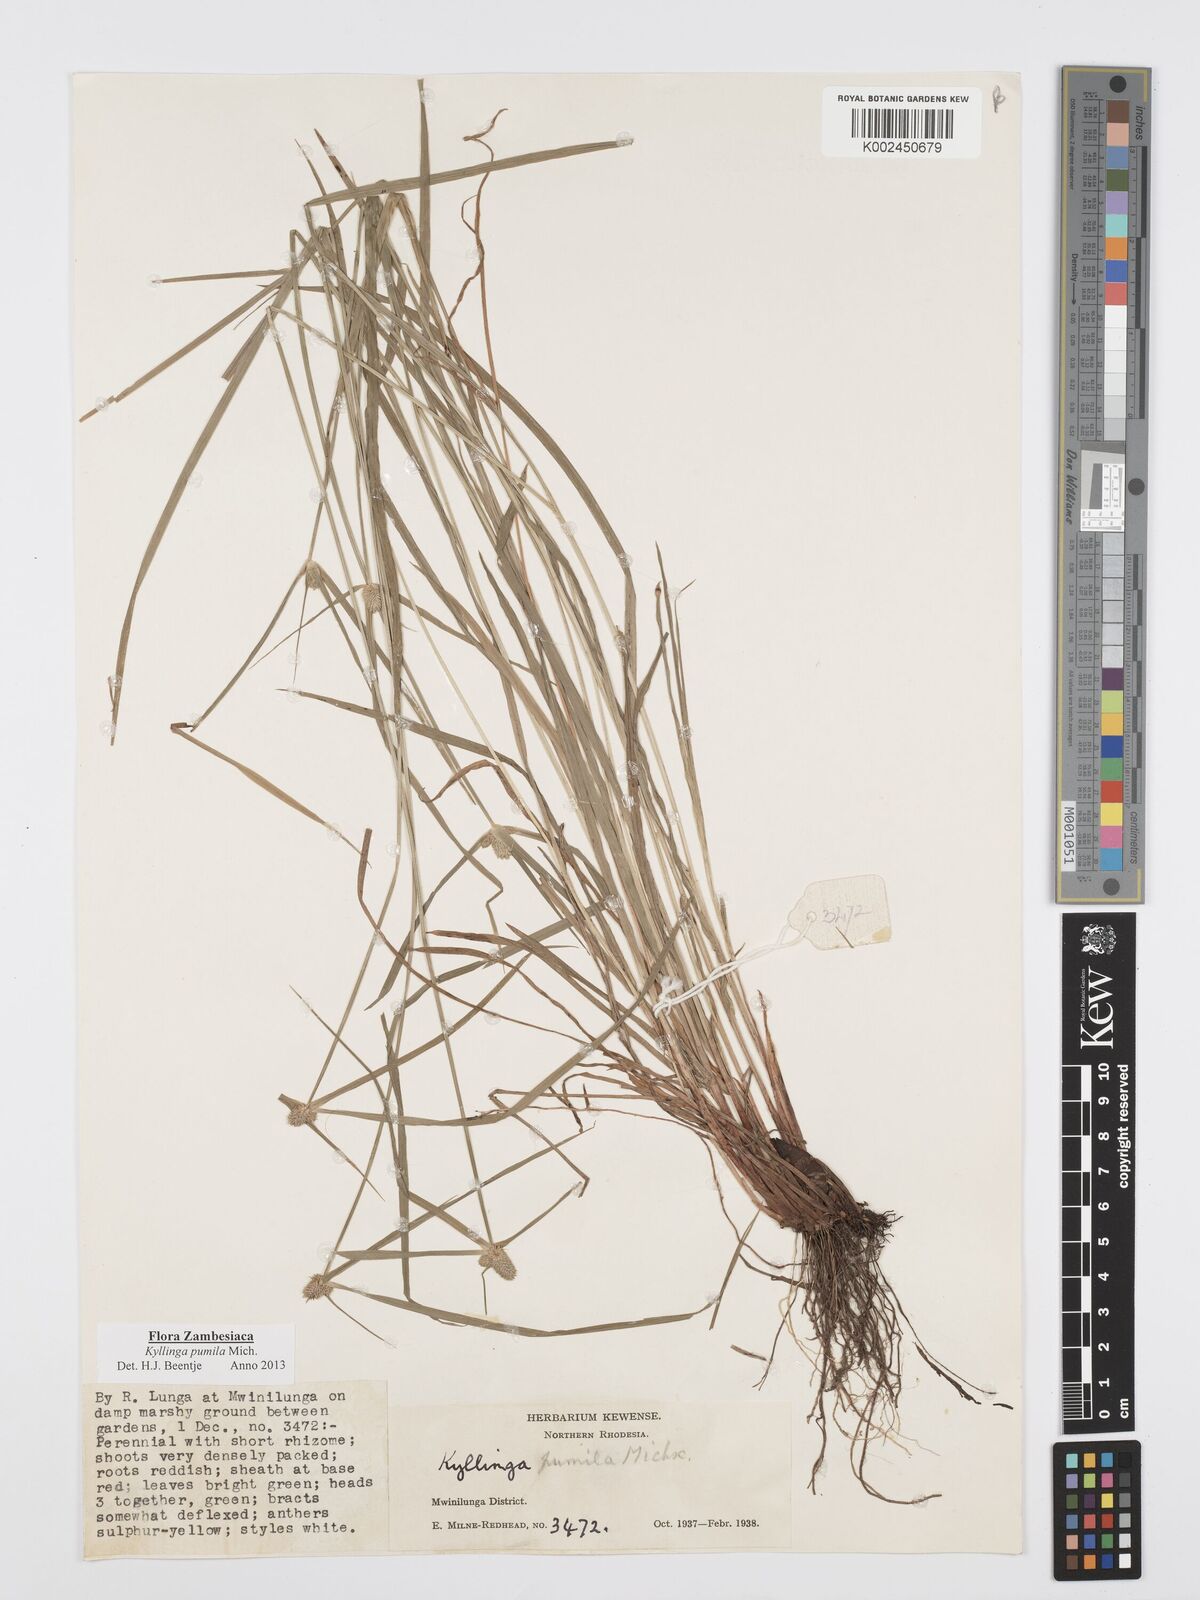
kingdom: Plantae
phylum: Tracheophyta
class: Liliopsida
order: Poales
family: Cyperaceae
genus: Cyperus
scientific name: Cyperus pumilus
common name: Low flatsedge
